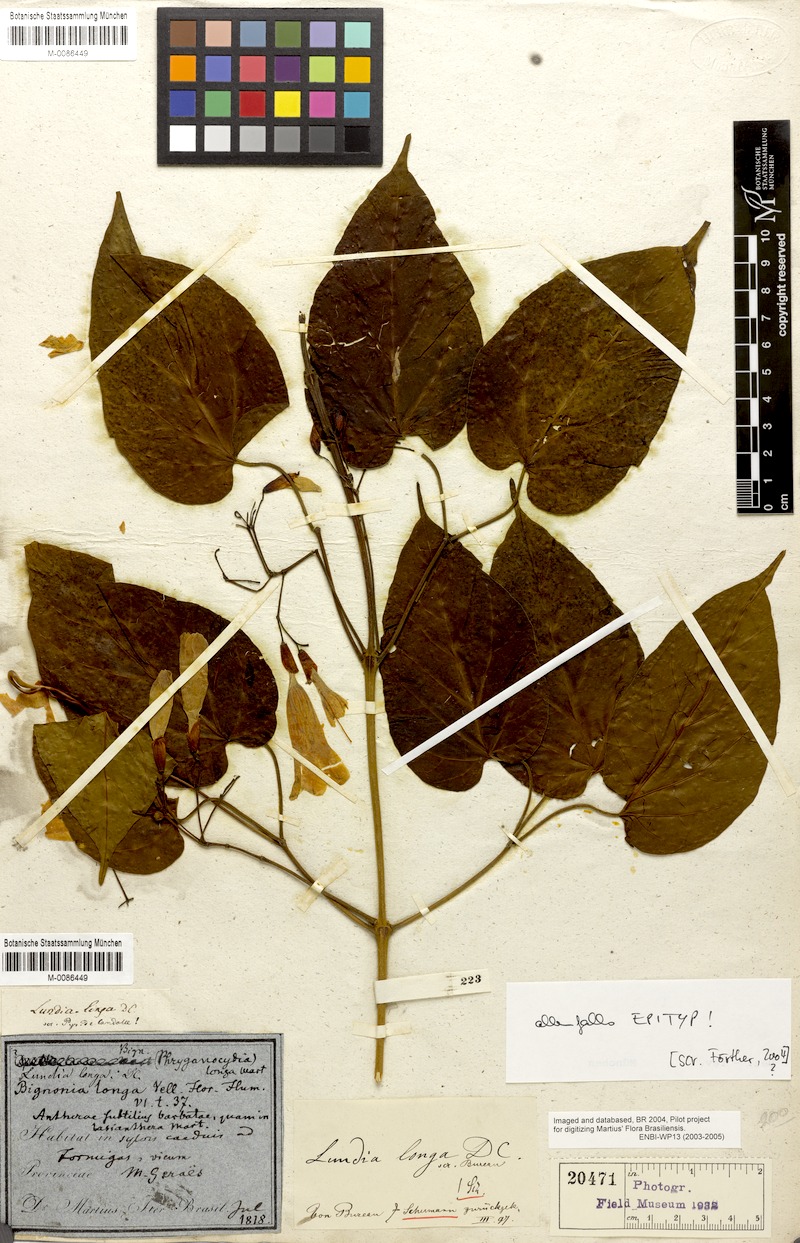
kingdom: Plantae
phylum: Tracheophyta
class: Magnoliopsida
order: Lamiales
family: Bignoniaceae
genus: Lundia
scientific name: Lundia damazii
